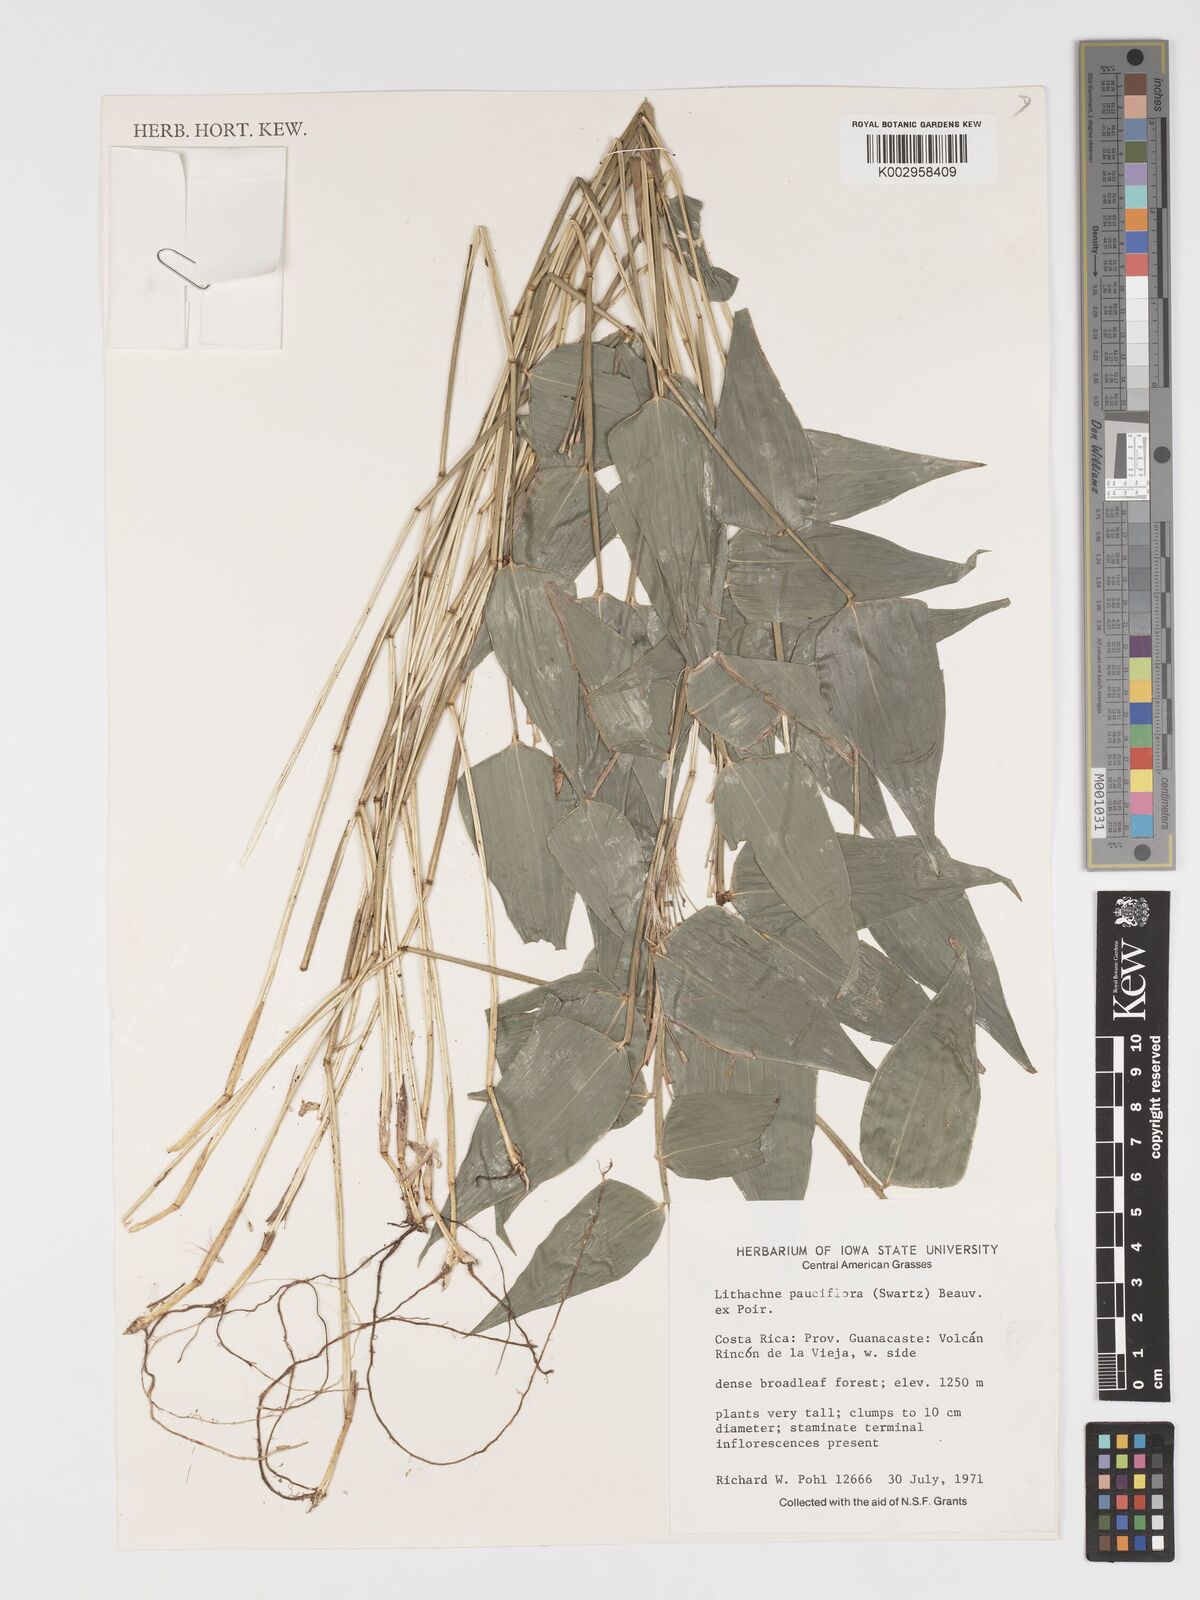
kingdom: Plantae
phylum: Tracheophyta
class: Liliopsida
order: Poales
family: Poaceae
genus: Lithachne
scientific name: Lithachne pauciflora
